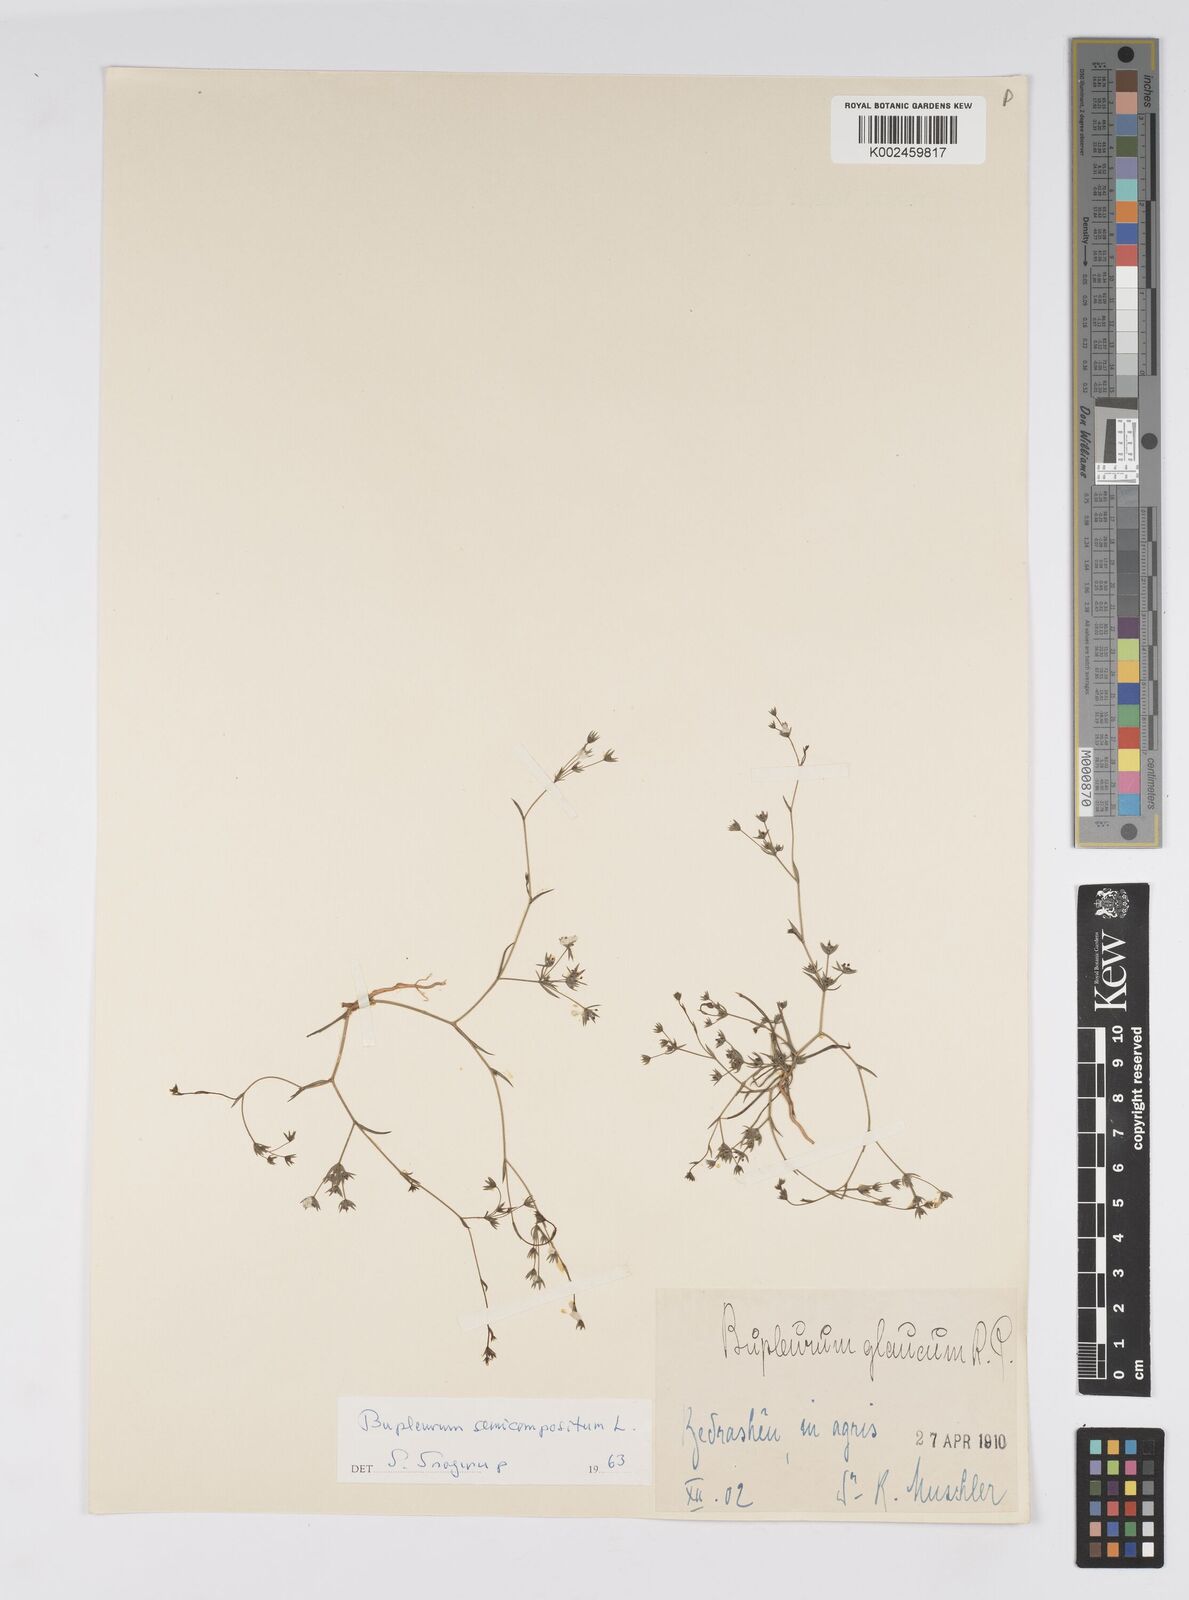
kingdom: Plantae
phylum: Tracheophyta
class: Magnoliopsida
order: Apiales
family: Apiaceae
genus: Bupleurum
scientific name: Bupleurum semicompositum
